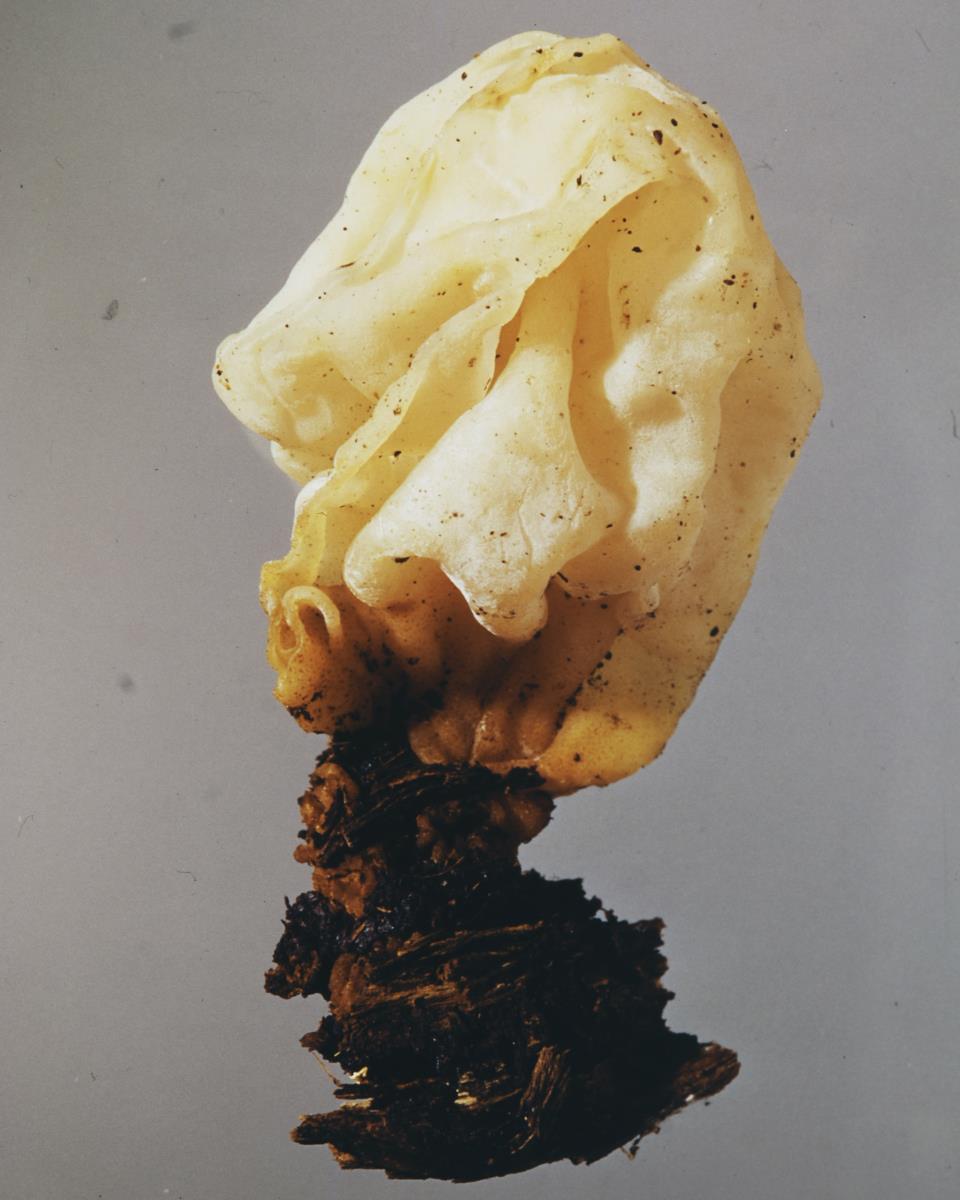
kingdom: Fungi
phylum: Basidiomycota
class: Tremellomycetes
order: Tremellales
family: Tremellaceae
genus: Tremella
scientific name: Tremella fuciformis
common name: Snow fungus
